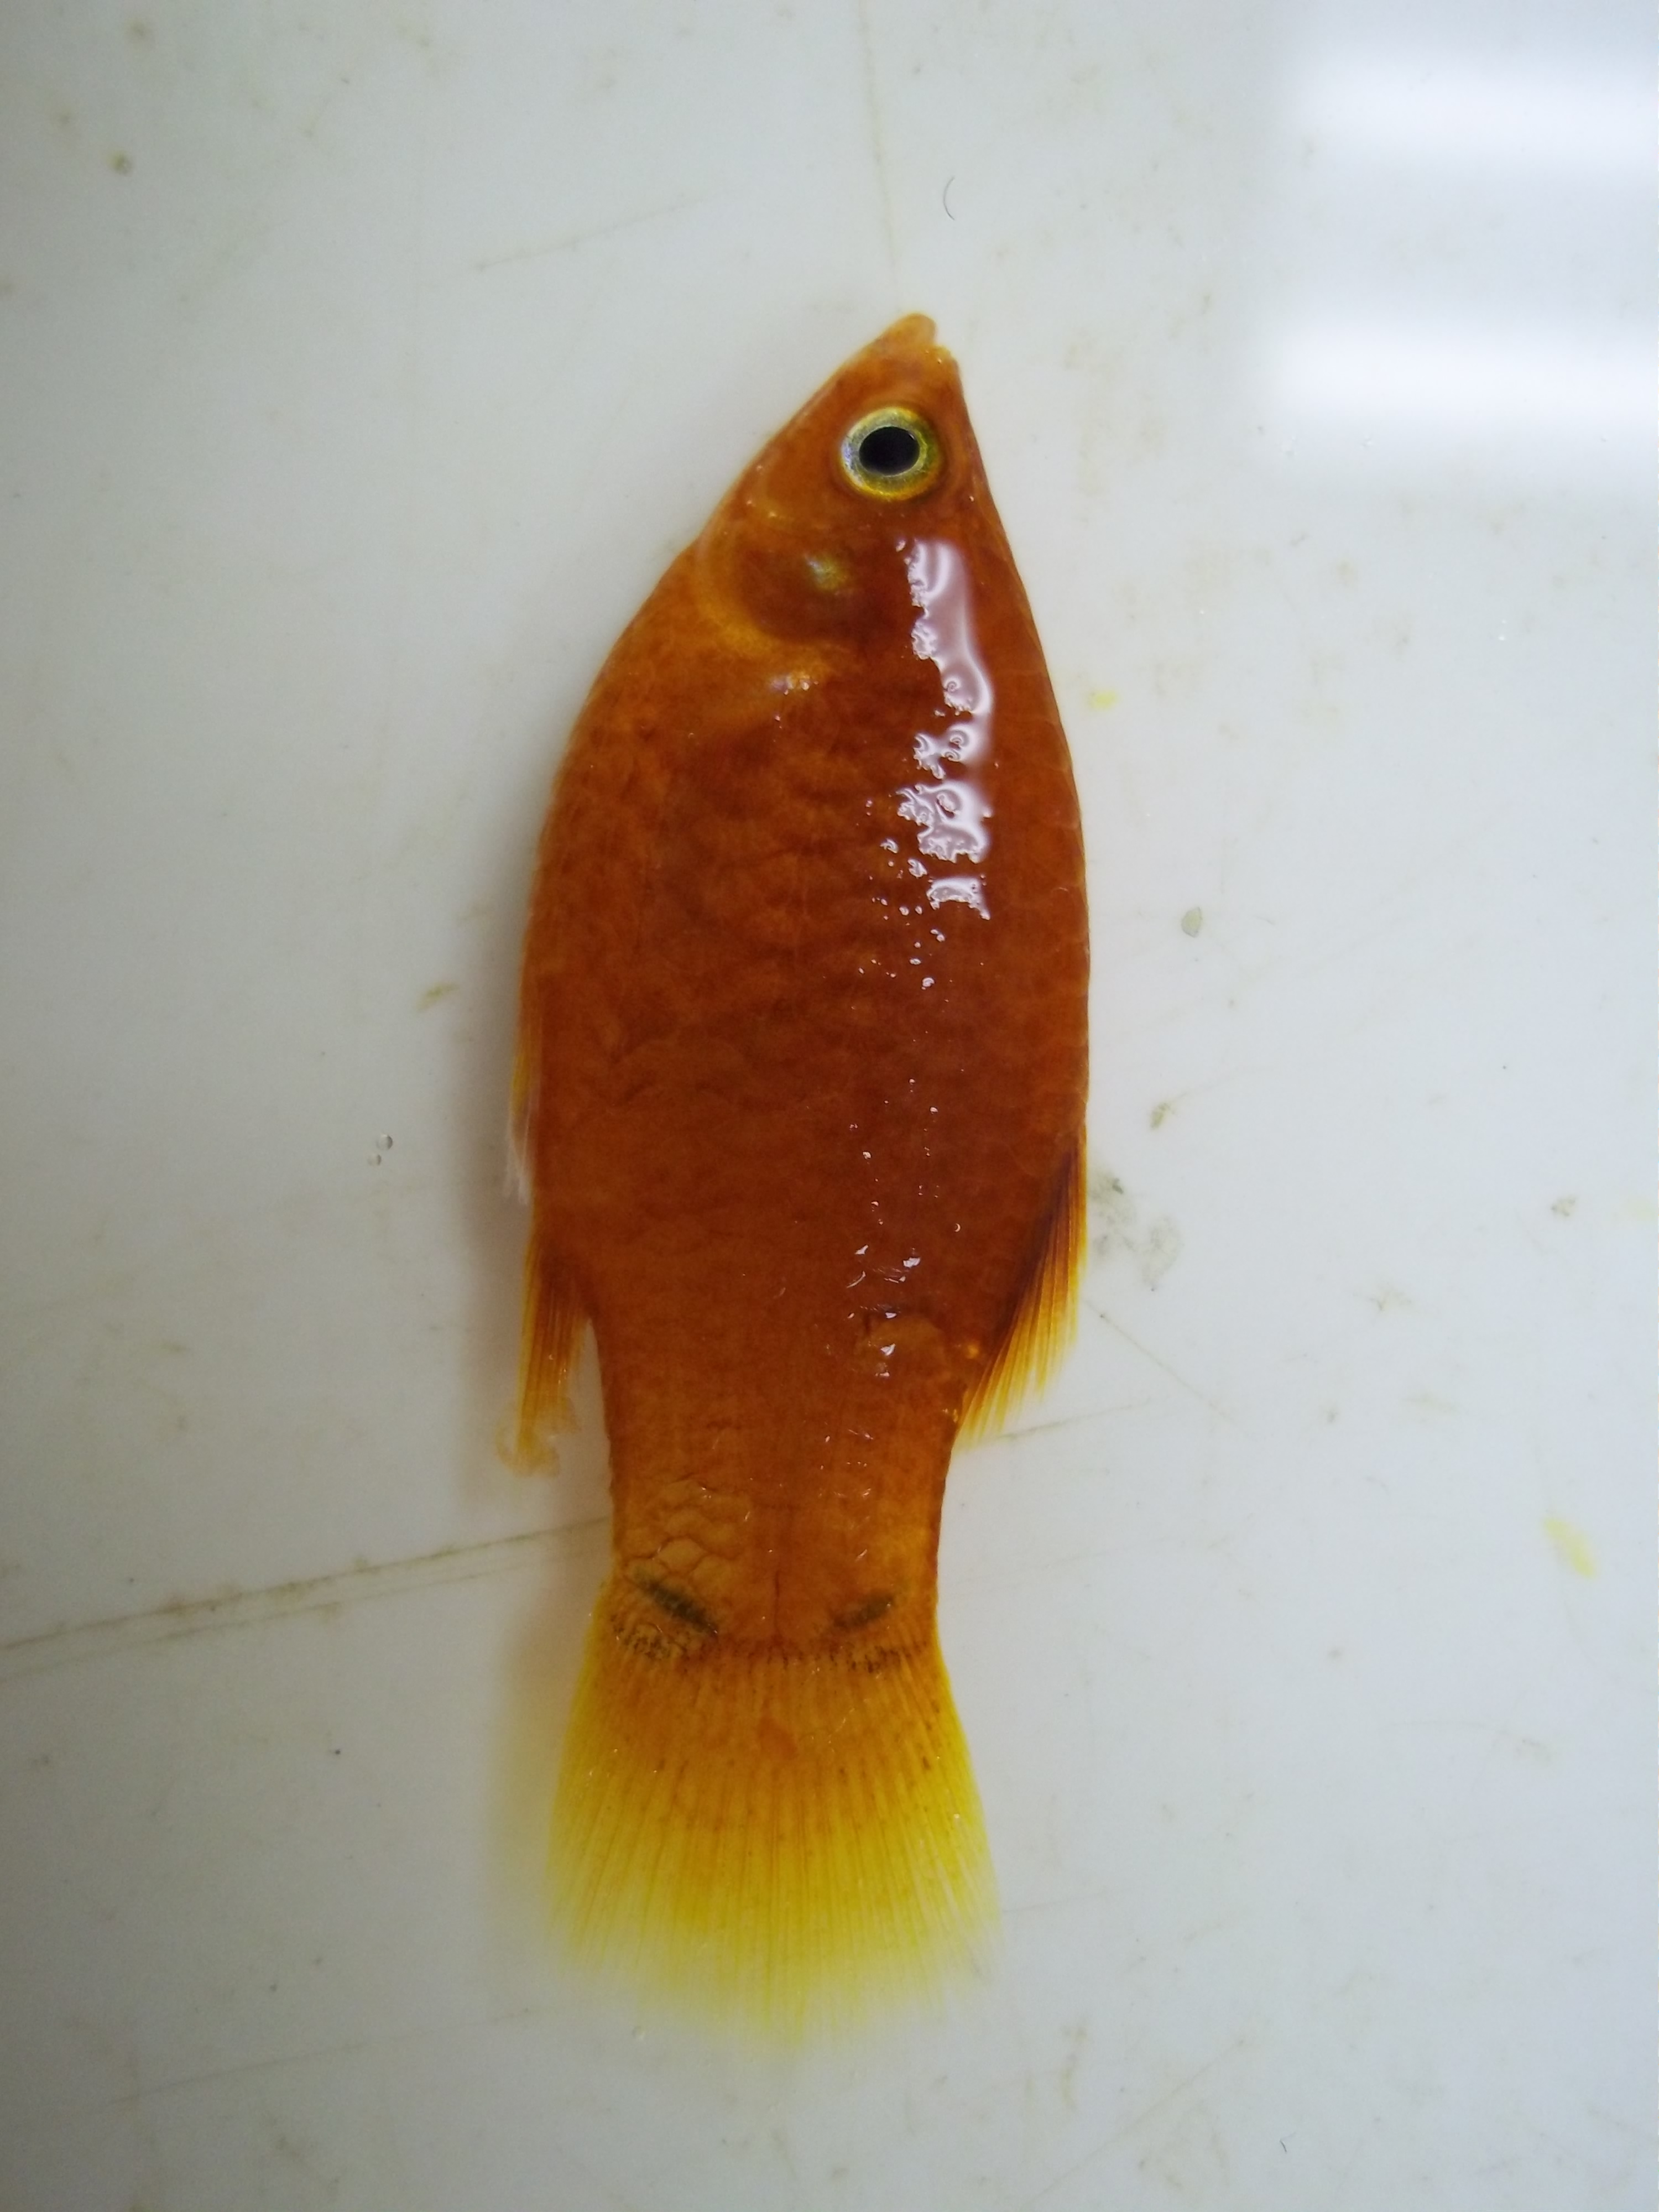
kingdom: Animalia
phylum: Chordata
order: Cyprinodontiformes
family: Poeciliidae
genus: Xiphophorus
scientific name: Xiphophorus maculatus
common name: Southern platyfish
